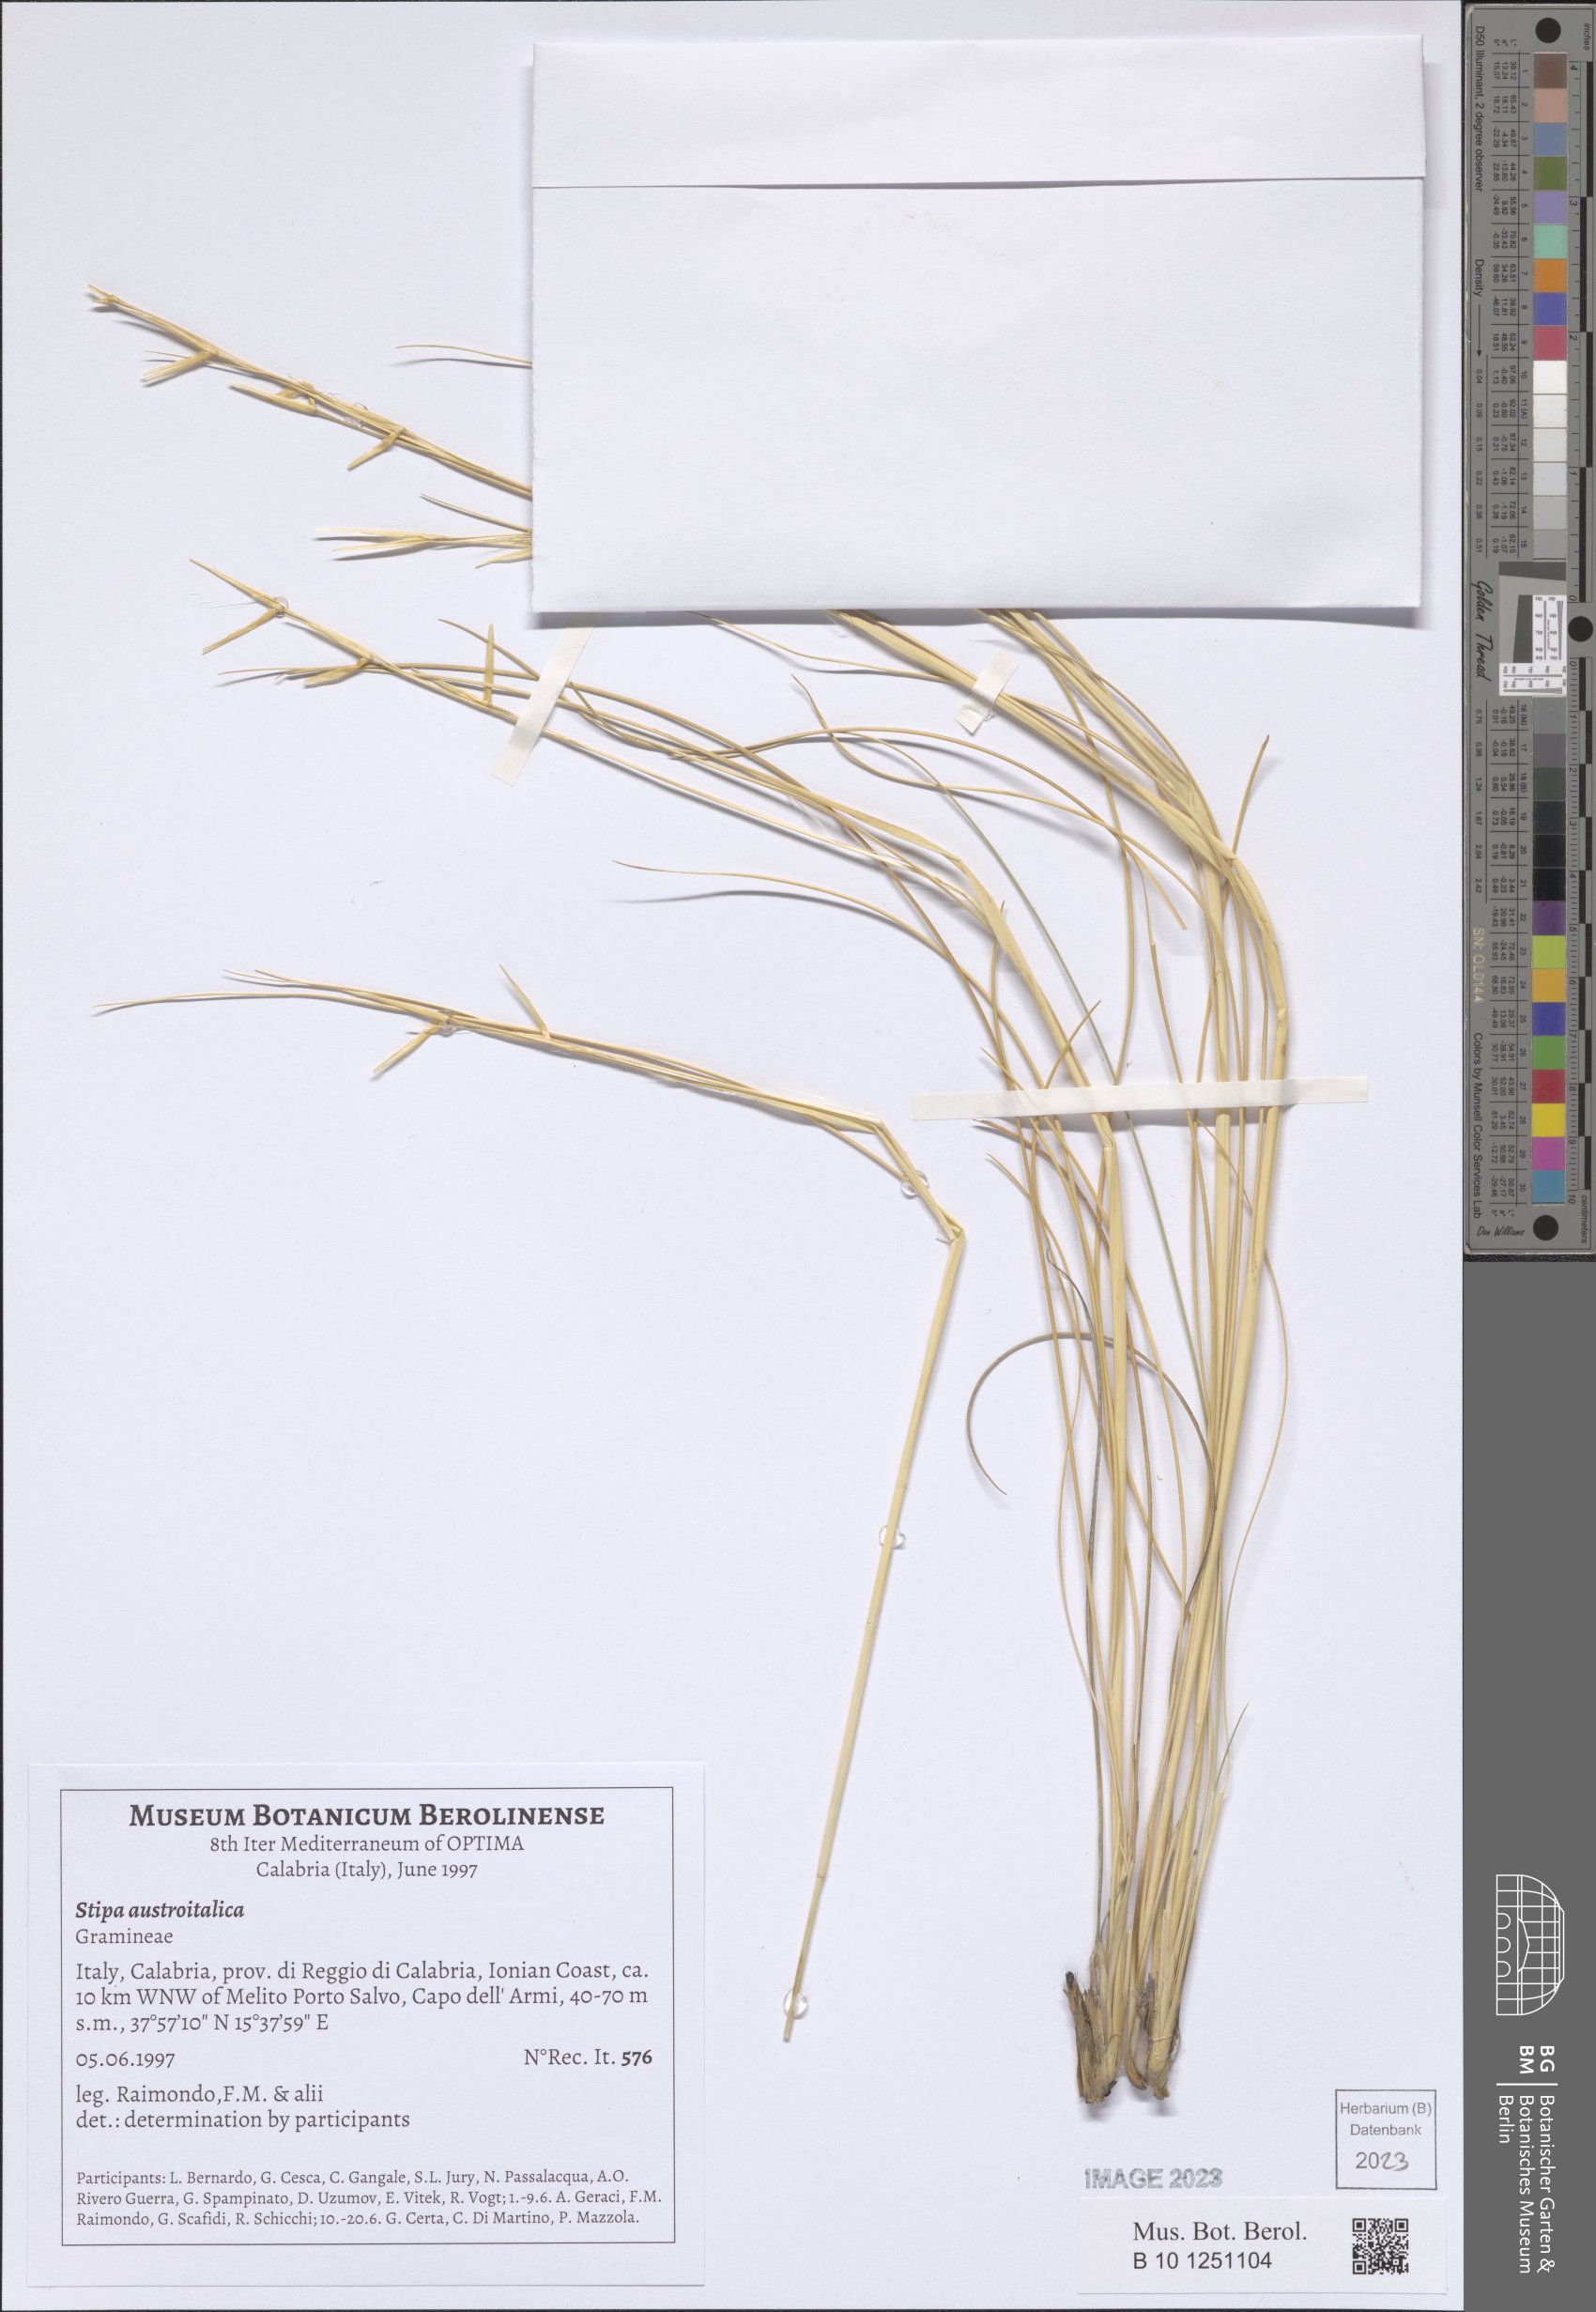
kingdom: Plantae
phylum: Tracheophyta
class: Liliopsida
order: Poales
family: Poaceae
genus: Stipa
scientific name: Stipa austroitalica
